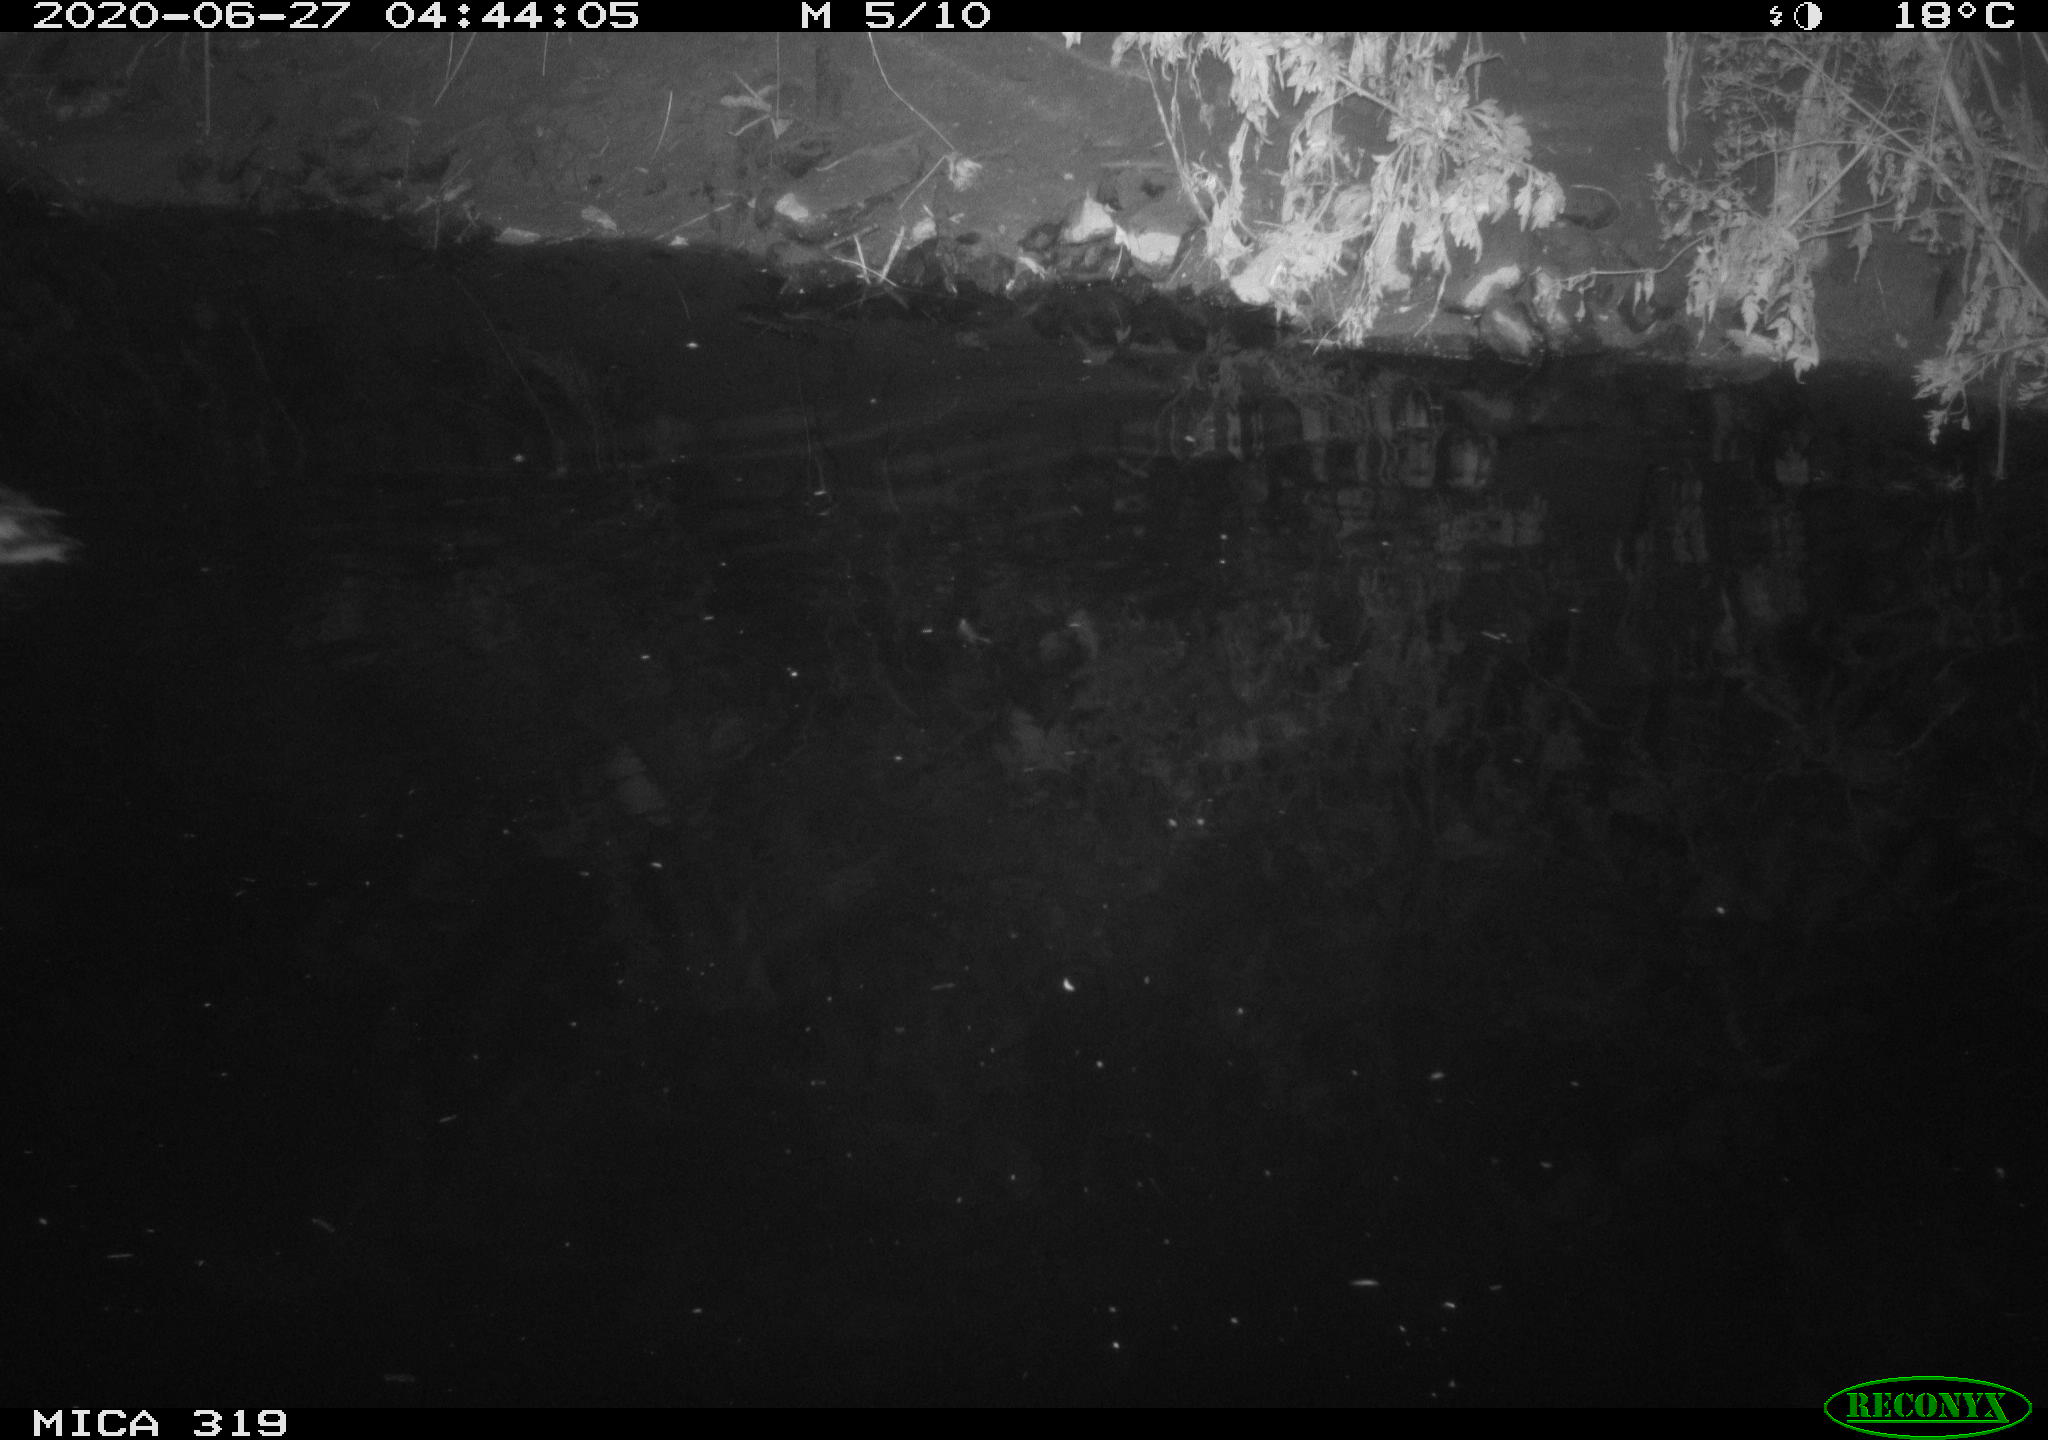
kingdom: Animalia
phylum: Chordata
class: Aves
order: Anseriformes
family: Anatidae
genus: Anas
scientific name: Anas platyrhynchos
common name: Mallard
